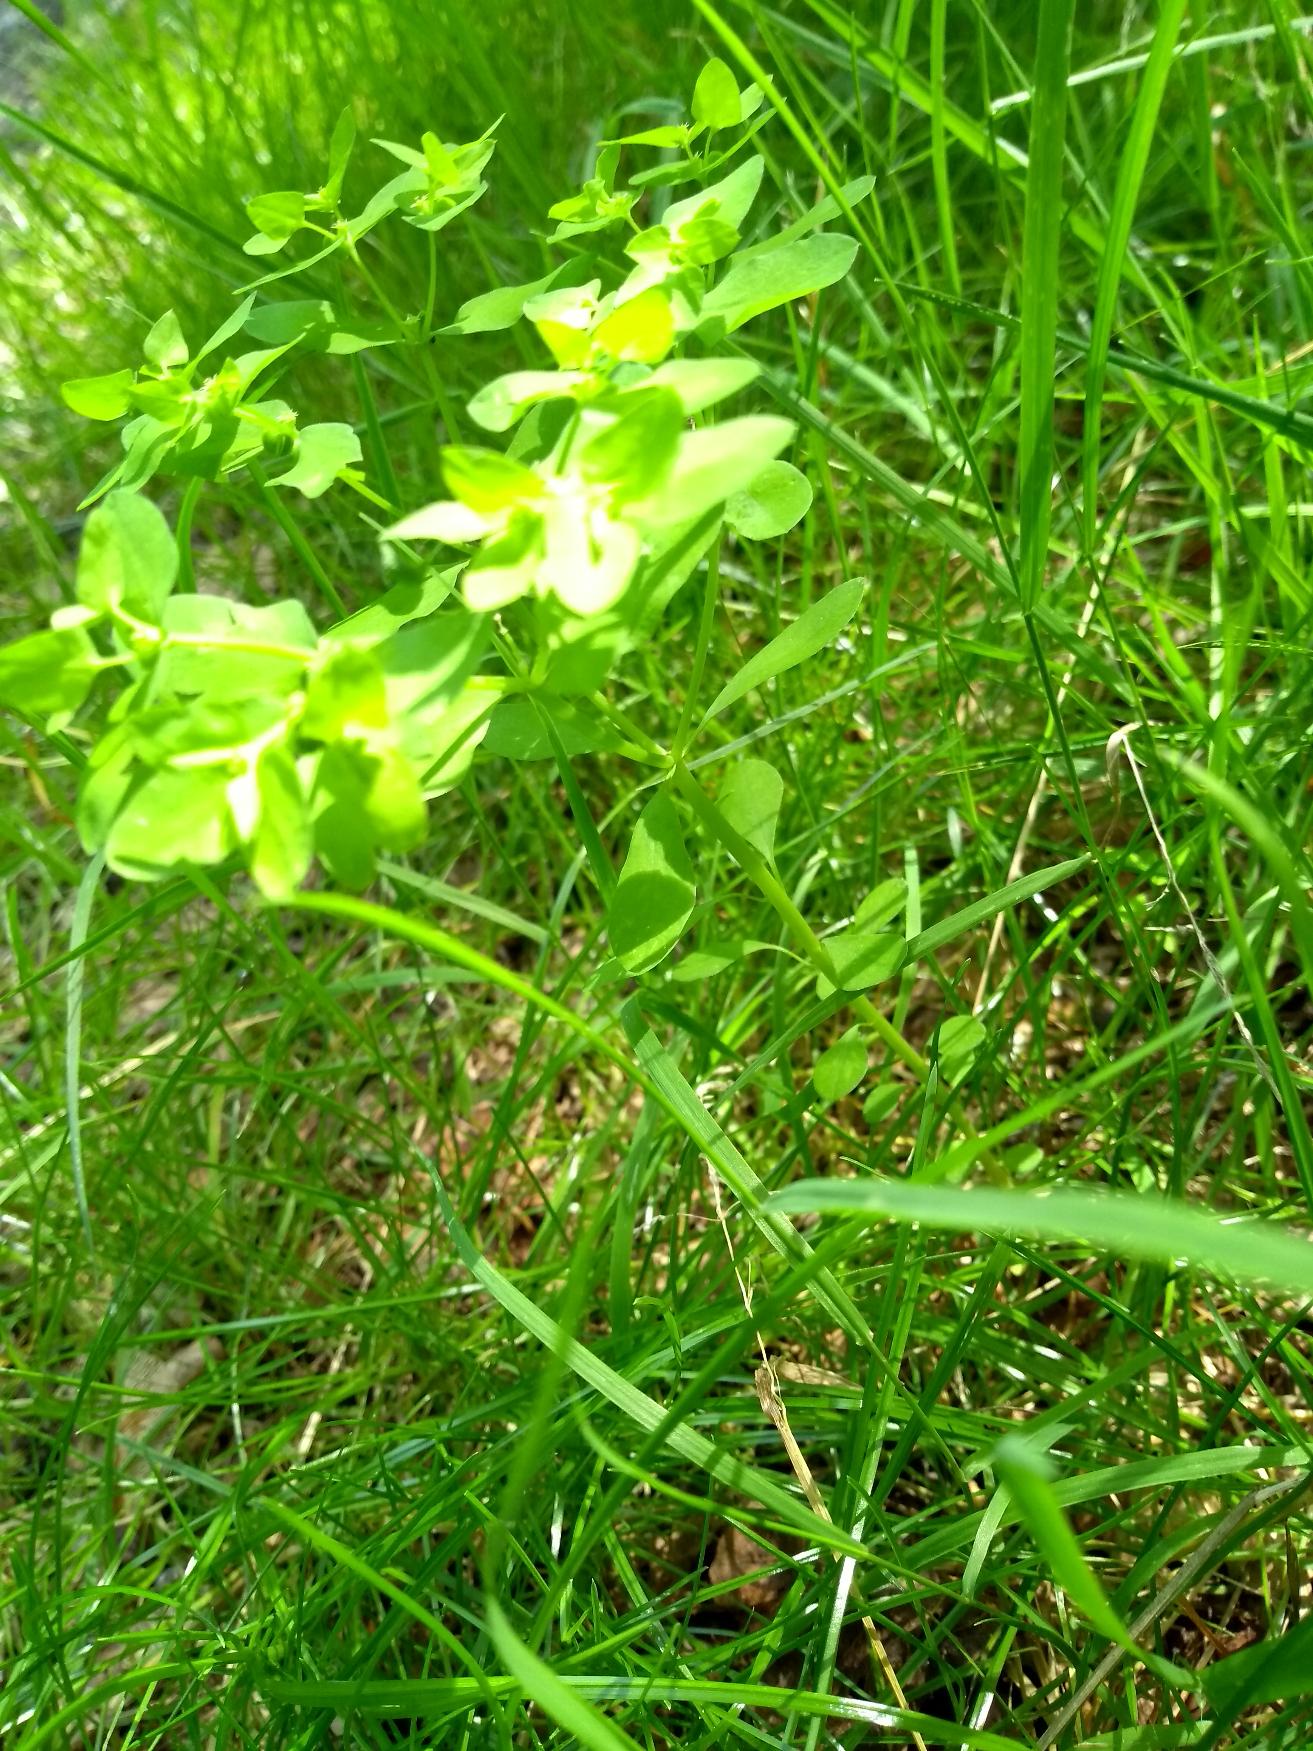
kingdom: Plantae
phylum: Tracheophyta
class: Magnoliopsida
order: Malpighiales
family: Euphorbiaceae
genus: Euphorbia
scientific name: Euphorbia peplus
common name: Gaffel-vortemælk
